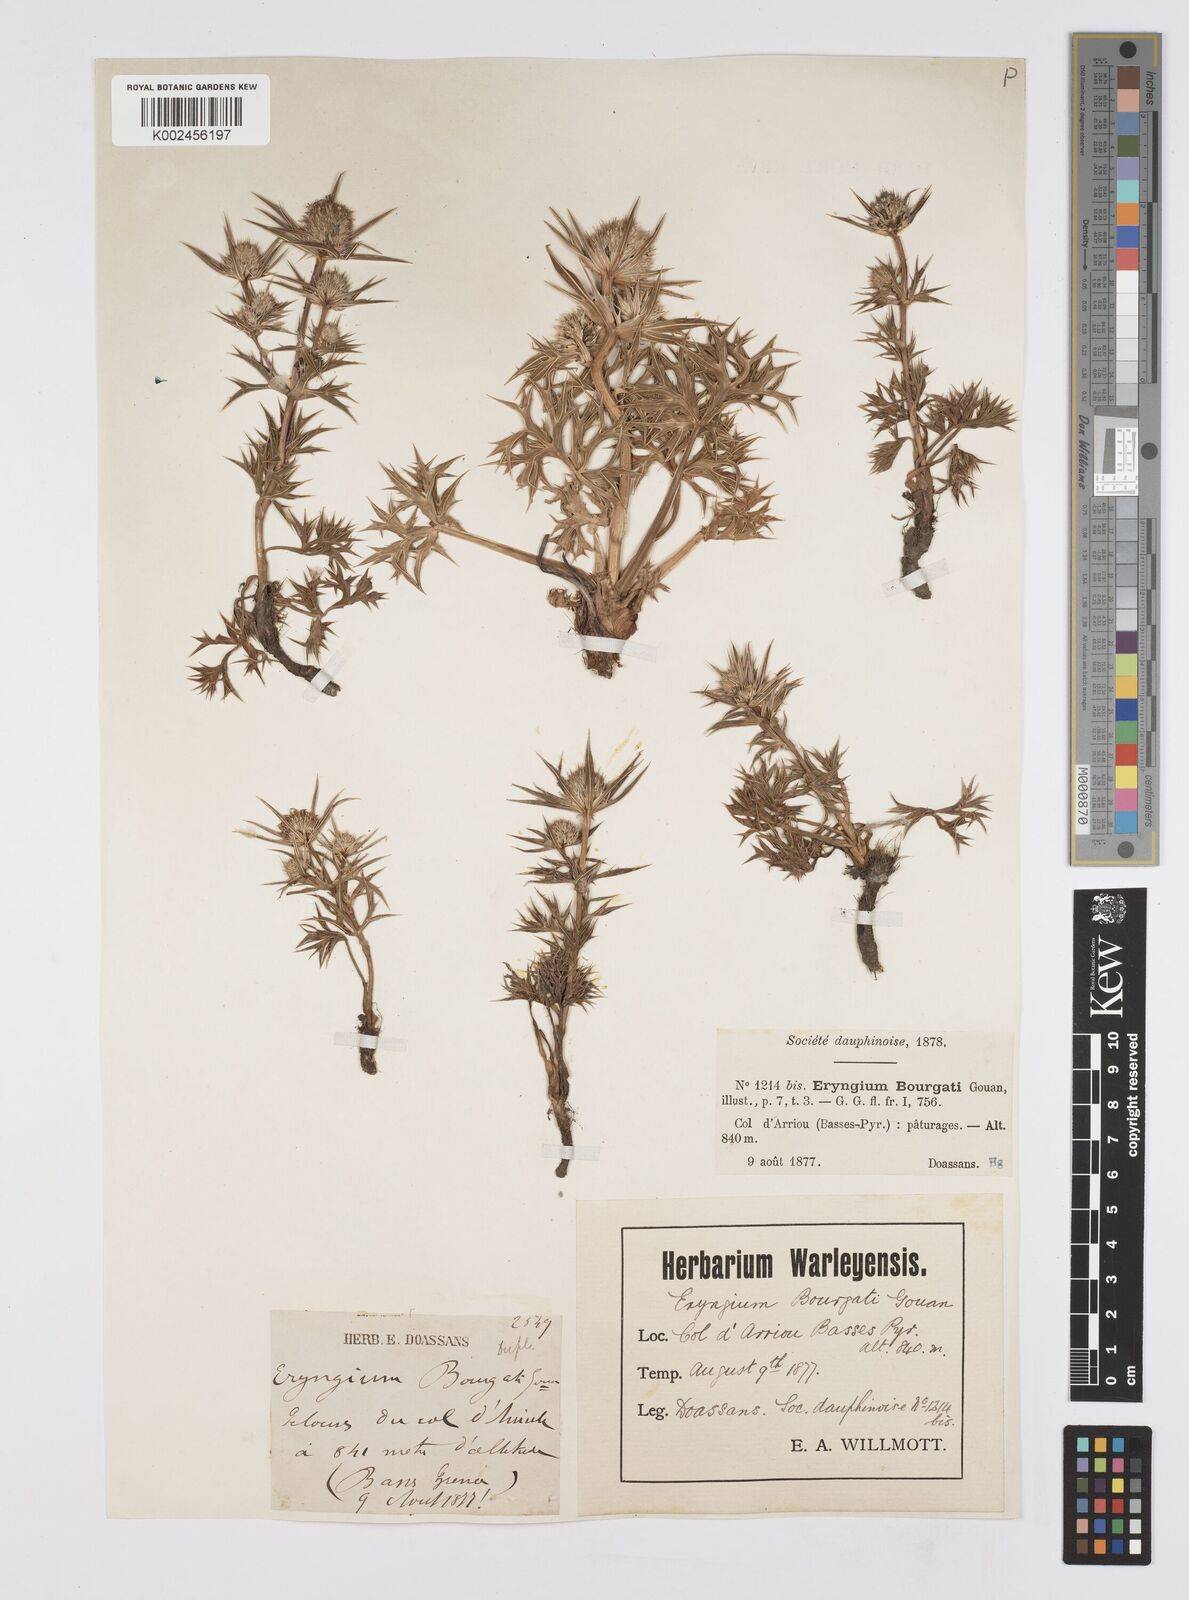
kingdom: Plantae
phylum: Tracheophyta
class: Magnoliopsida
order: Apiales
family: Apiaceae
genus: Eryngium
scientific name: Eryngium bourgatii
